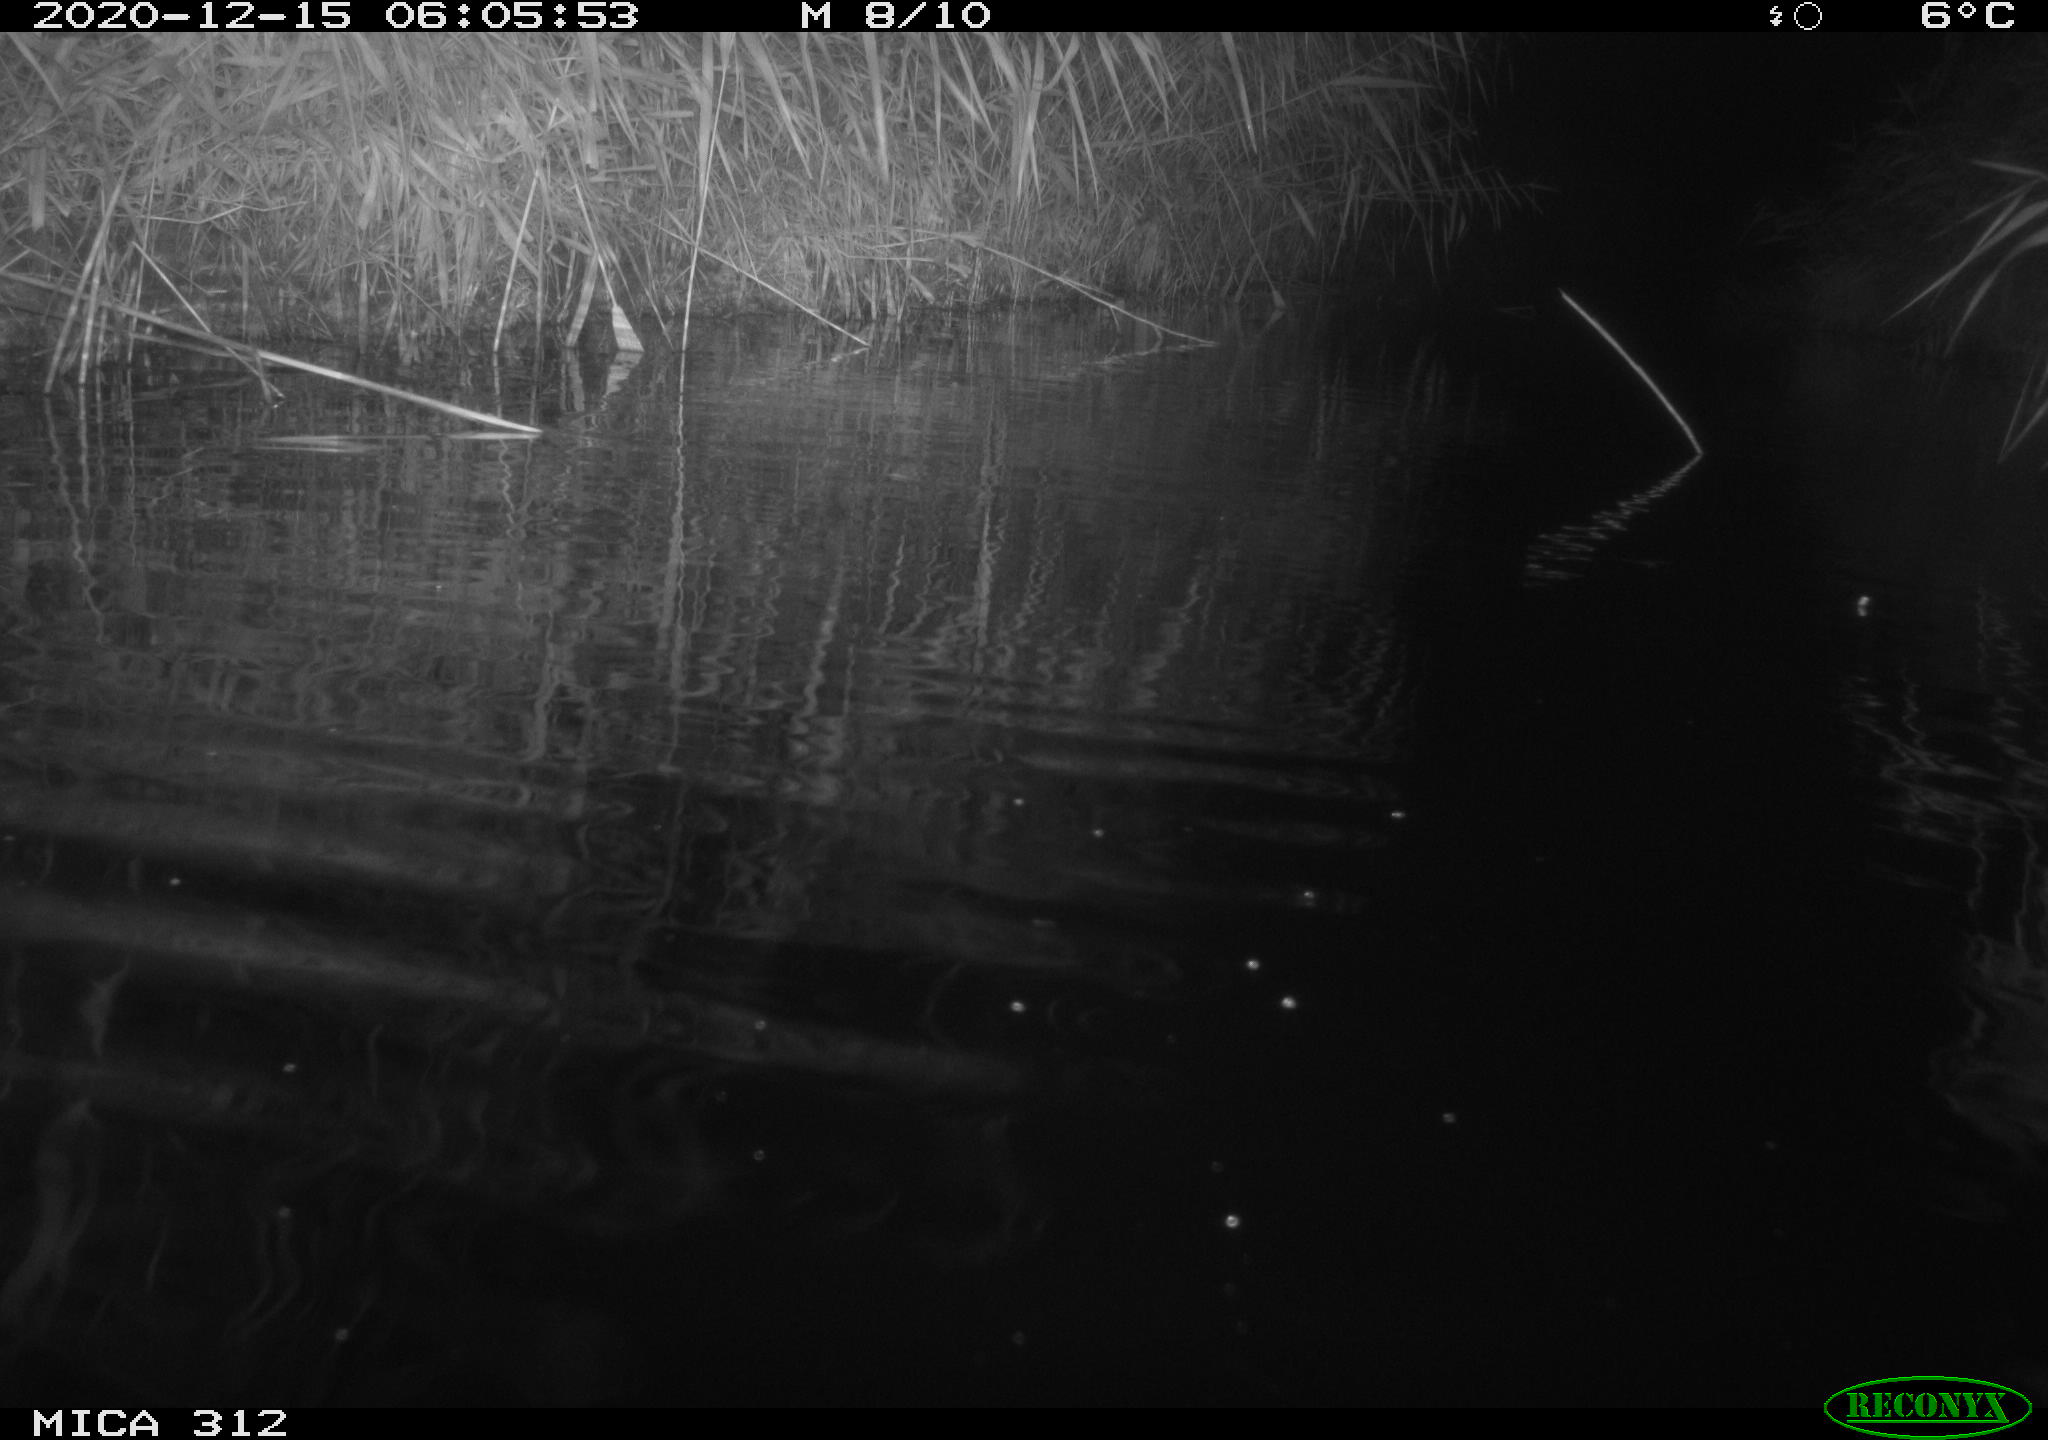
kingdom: Animalia
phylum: Chordata
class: Mammalia
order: Rodentia
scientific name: Rodentia
